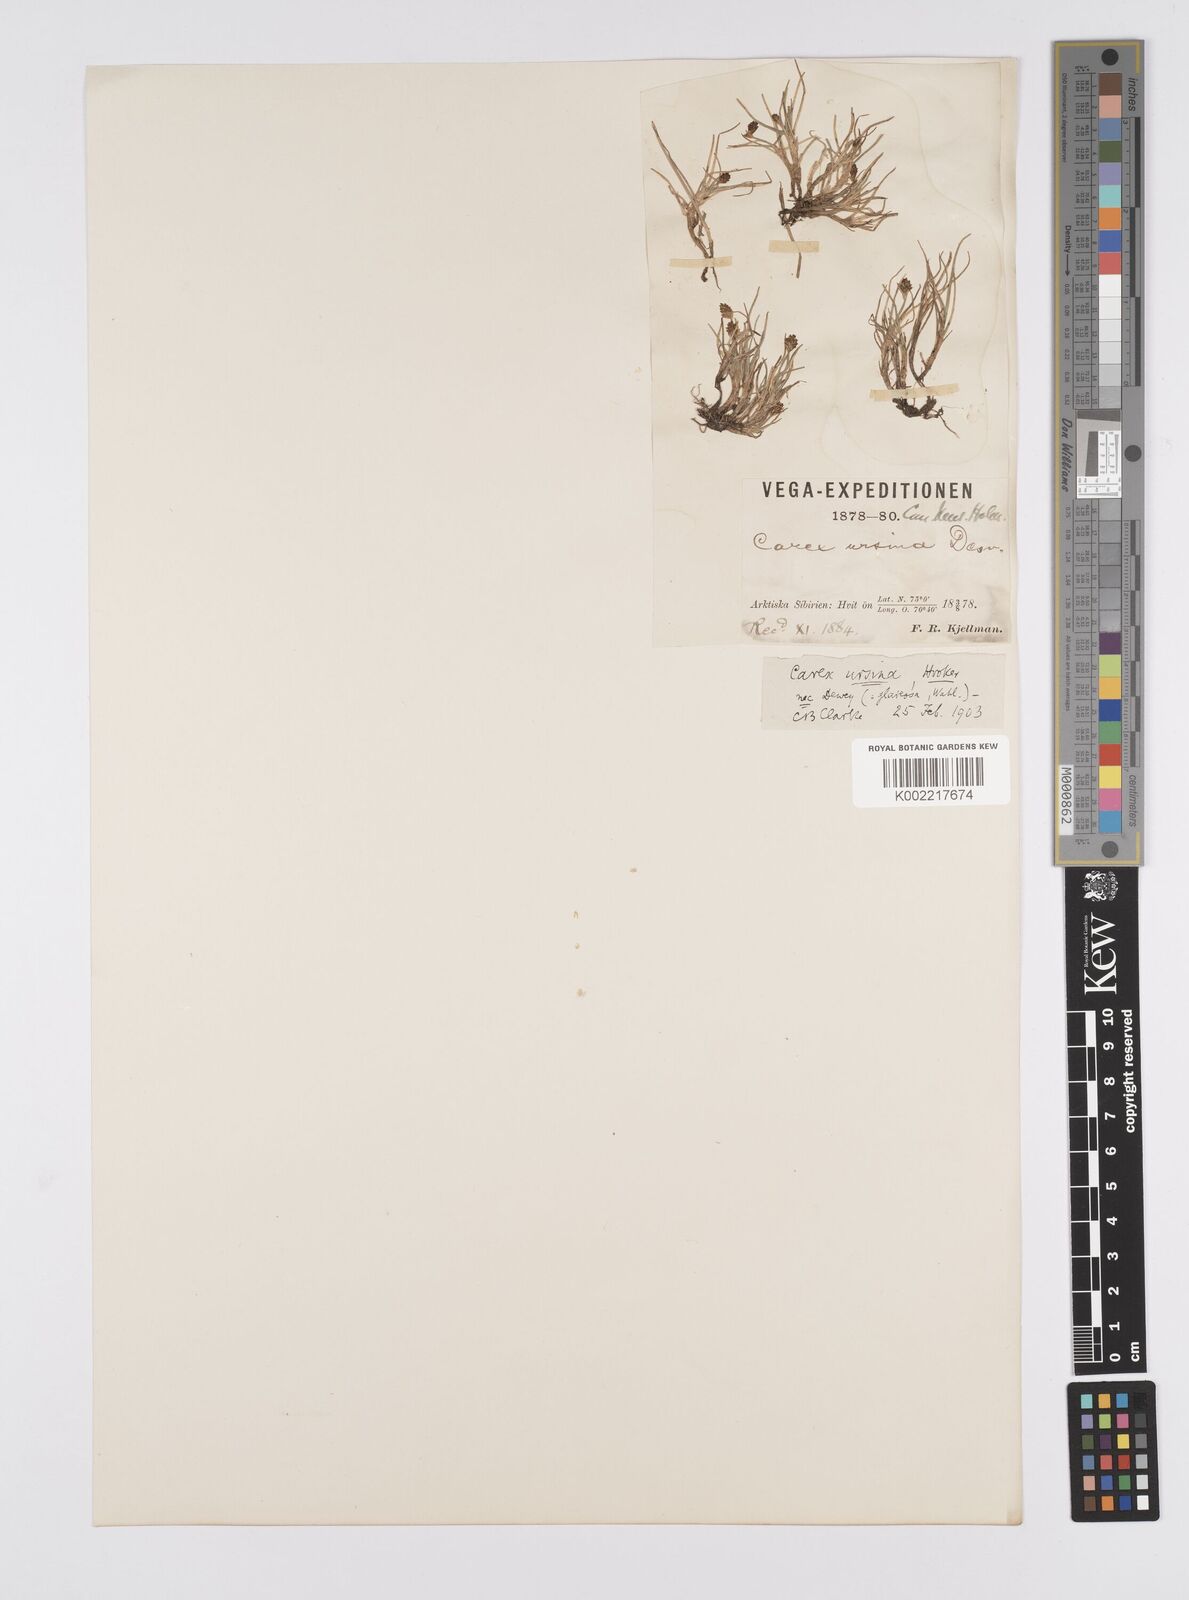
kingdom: Plantae
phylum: Tracheophyta
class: Liliopsida
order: Poales
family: Cyperaceae
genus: Carex
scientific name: Carex ursina
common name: Bear sedge
